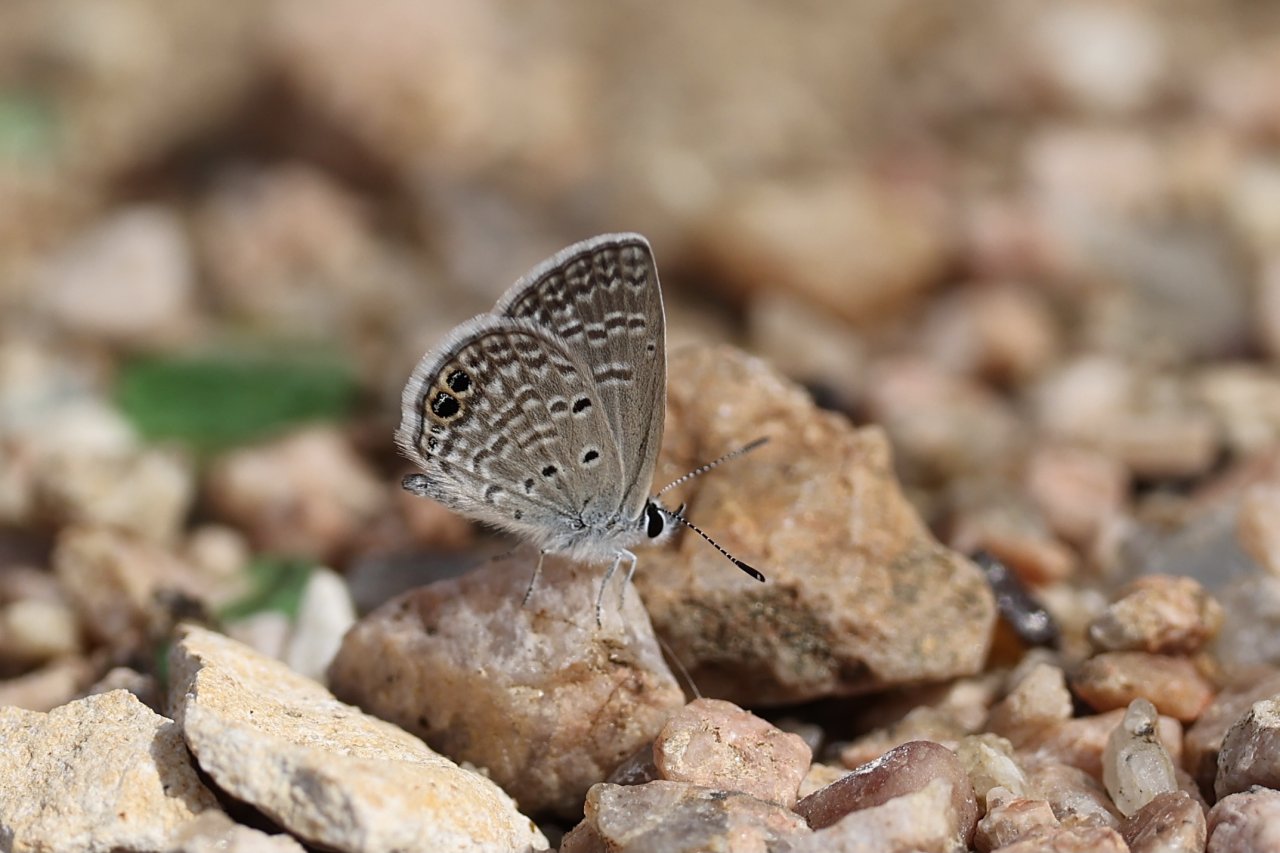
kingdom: Animalia
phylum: Arthropoda
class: Insecta
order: Lepidoptera
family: Lycaenidae
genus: Hemiargus
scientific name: Hemiargus ceraunus
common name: Ceraunus Blue
